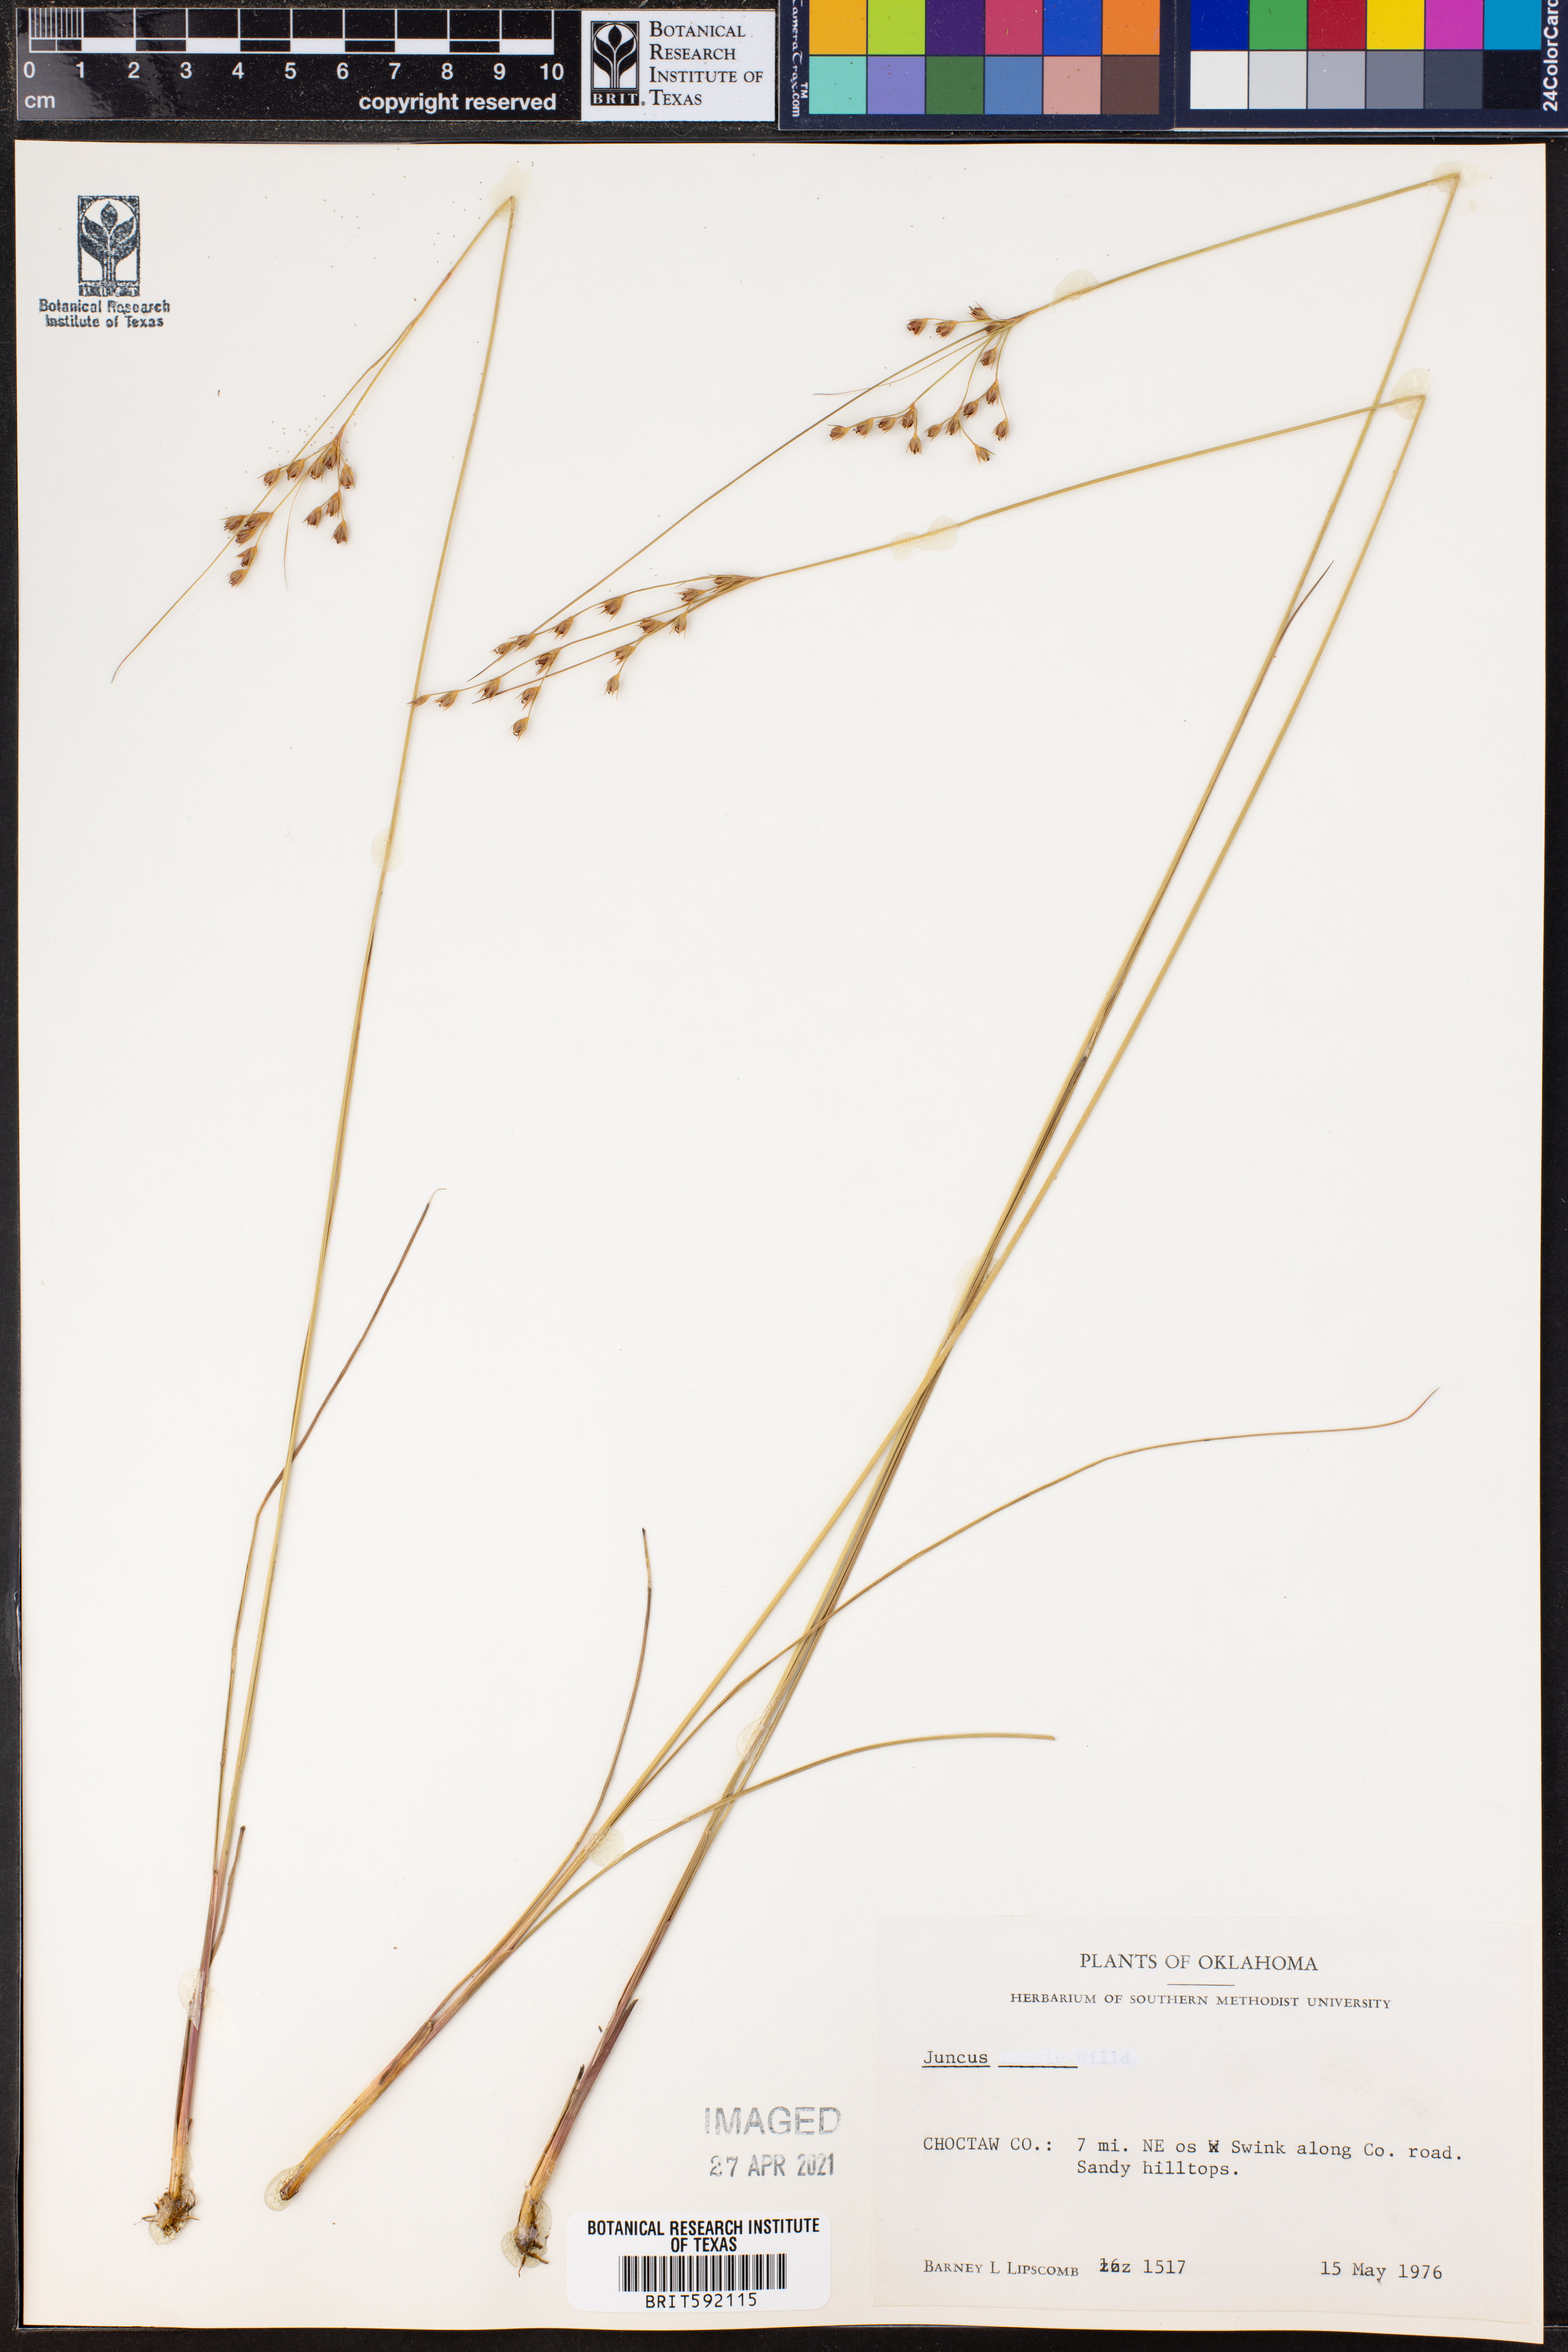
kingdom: Plantae
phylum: Tracheophyta
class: Liliopsida
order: Poales
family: Juncaceae
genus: Juncus
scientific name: Juncus
